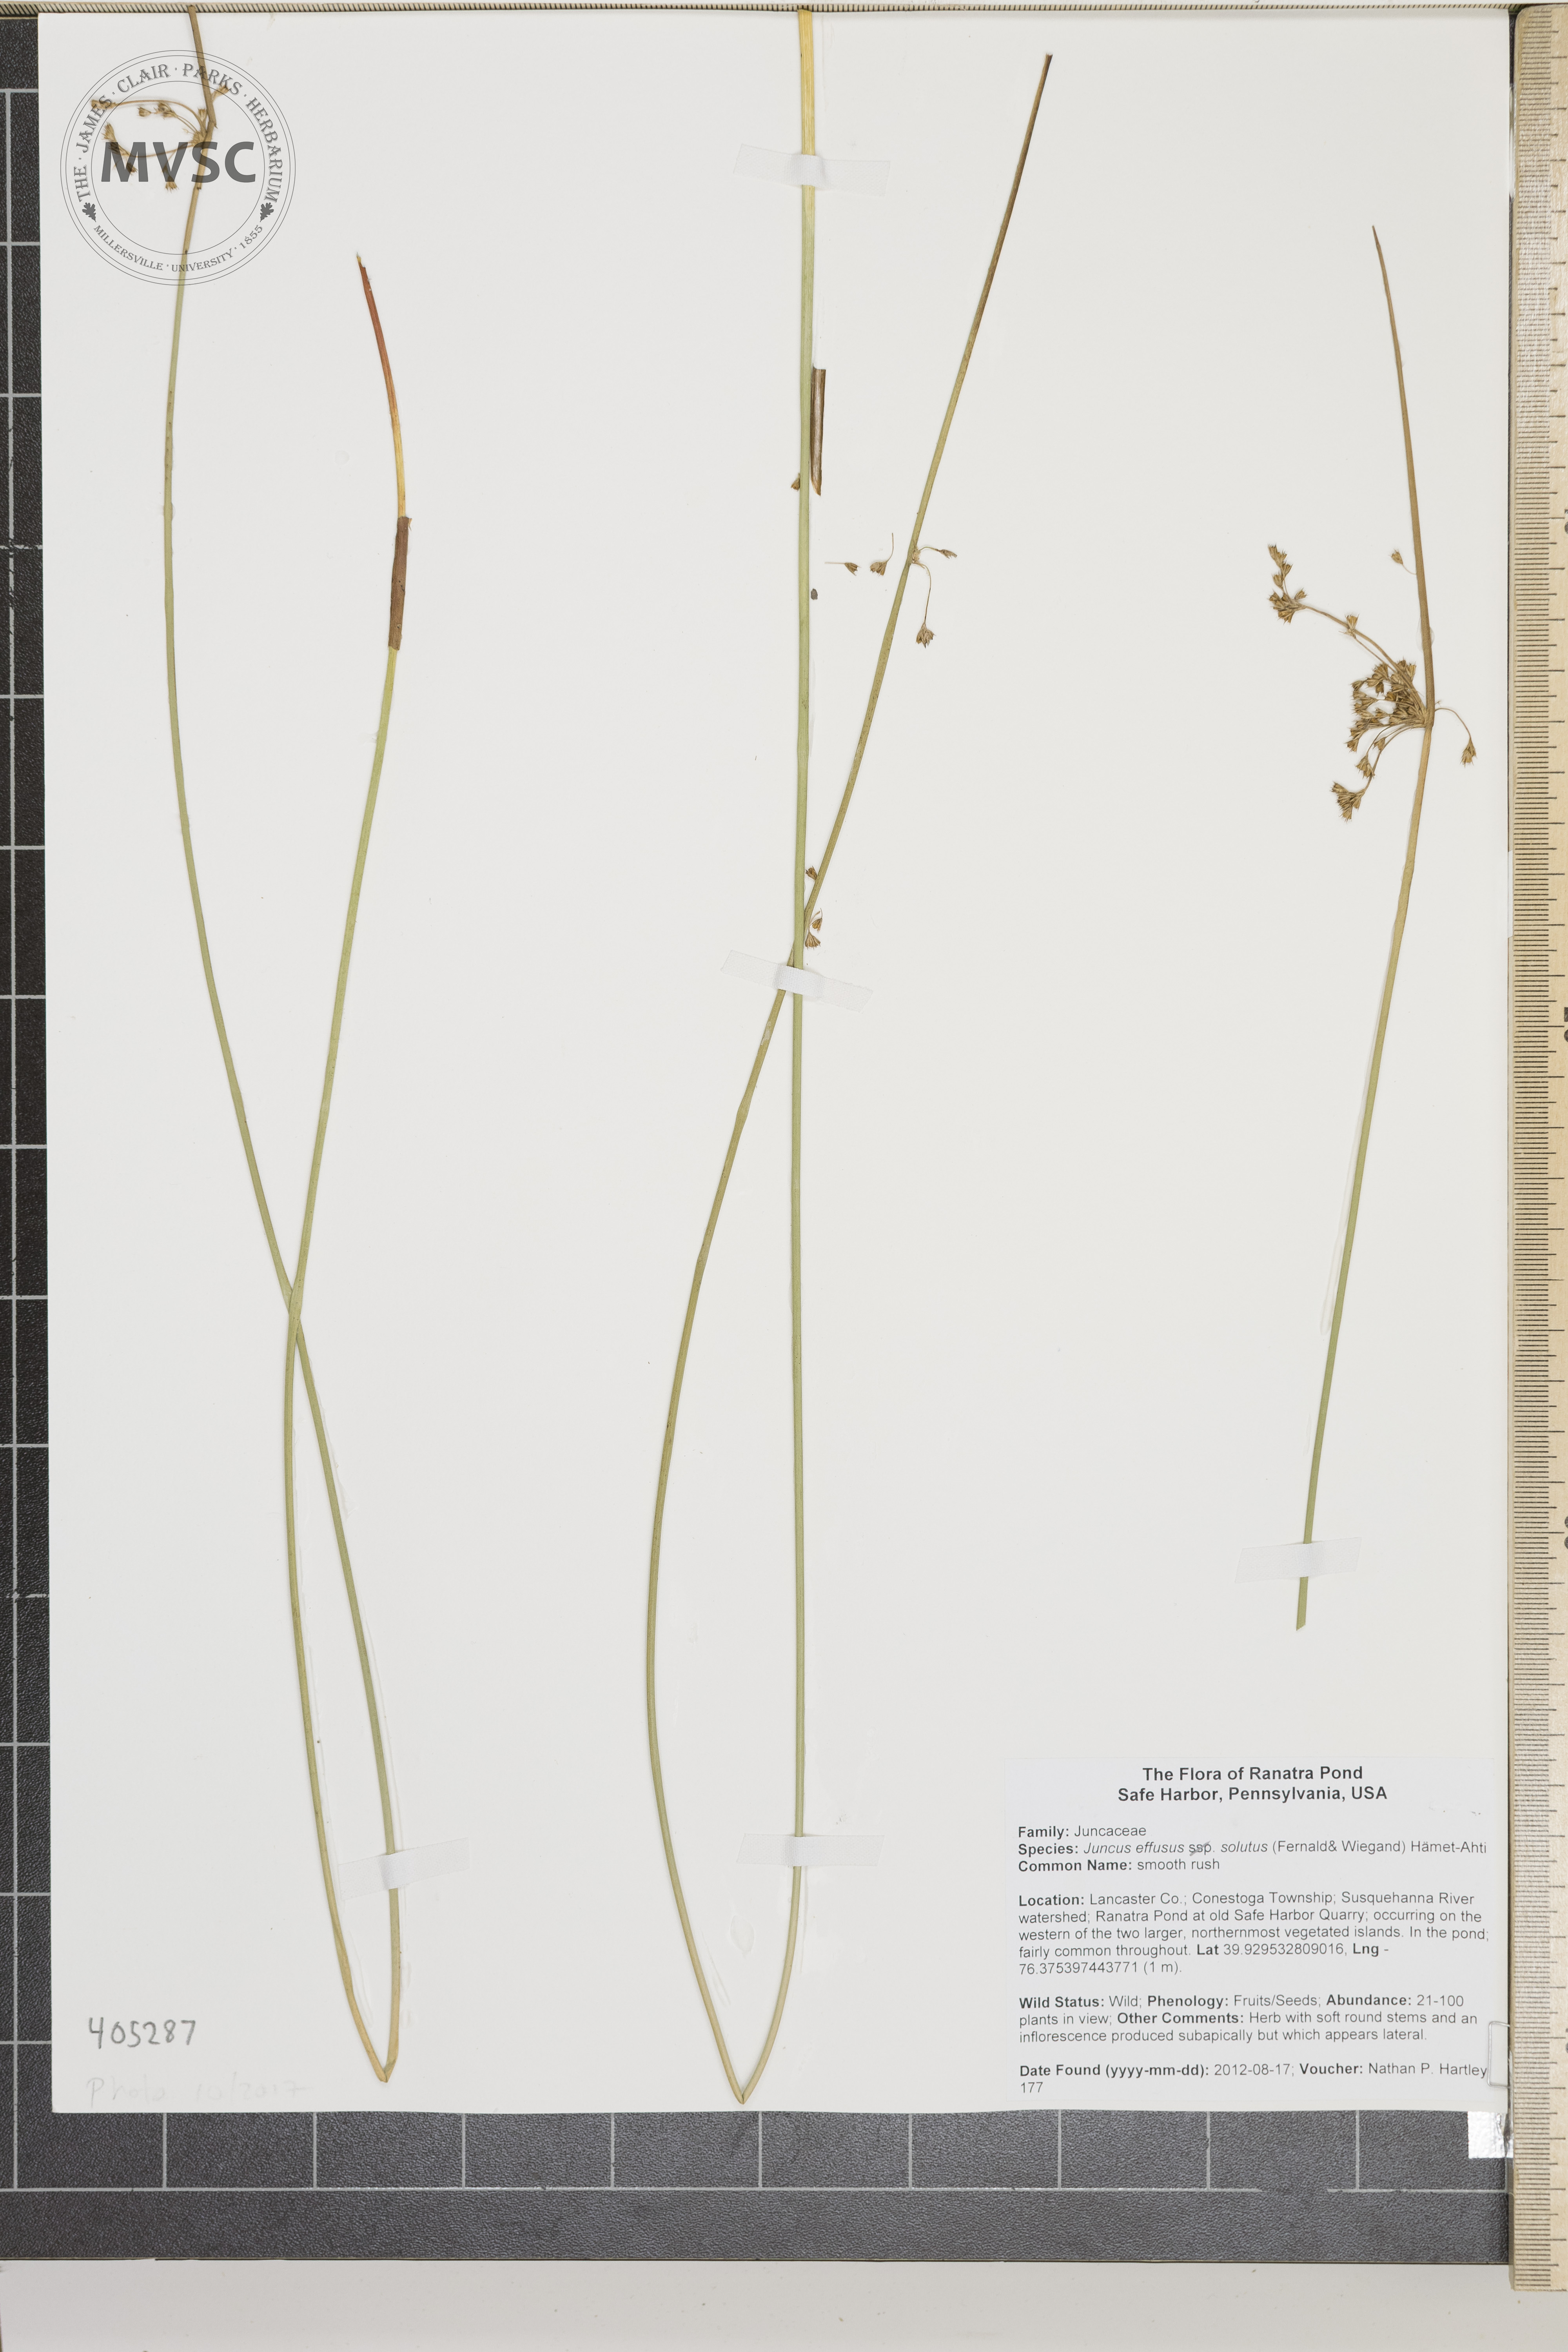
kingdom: Plantae
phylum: Tracheophyta
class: Liliopsida
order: Poales
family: Juncaceae
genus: Juncus
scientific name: Juncus effusus
